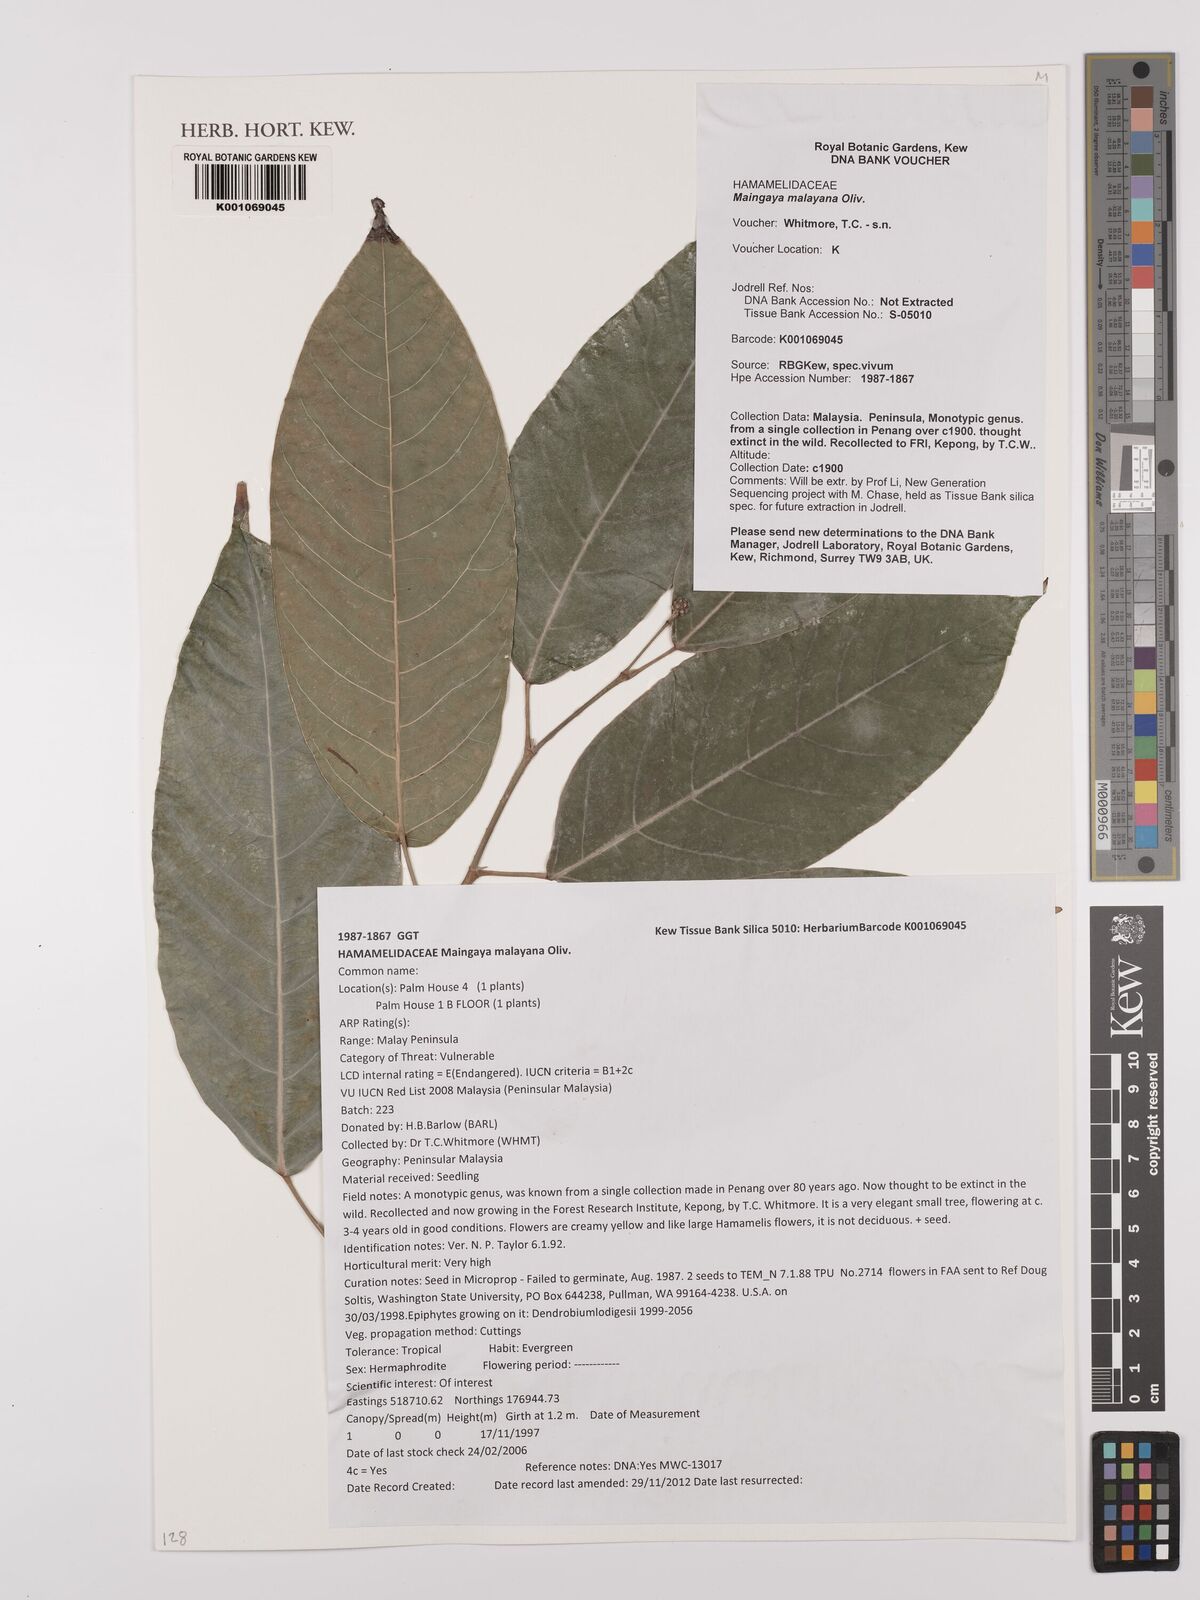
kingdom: Plantae
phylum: Tracheophyta
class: Magnoliopsida
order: Saxifragales
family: Hamamelidaceae
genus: Maingaya
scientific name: Maingaya malayana
